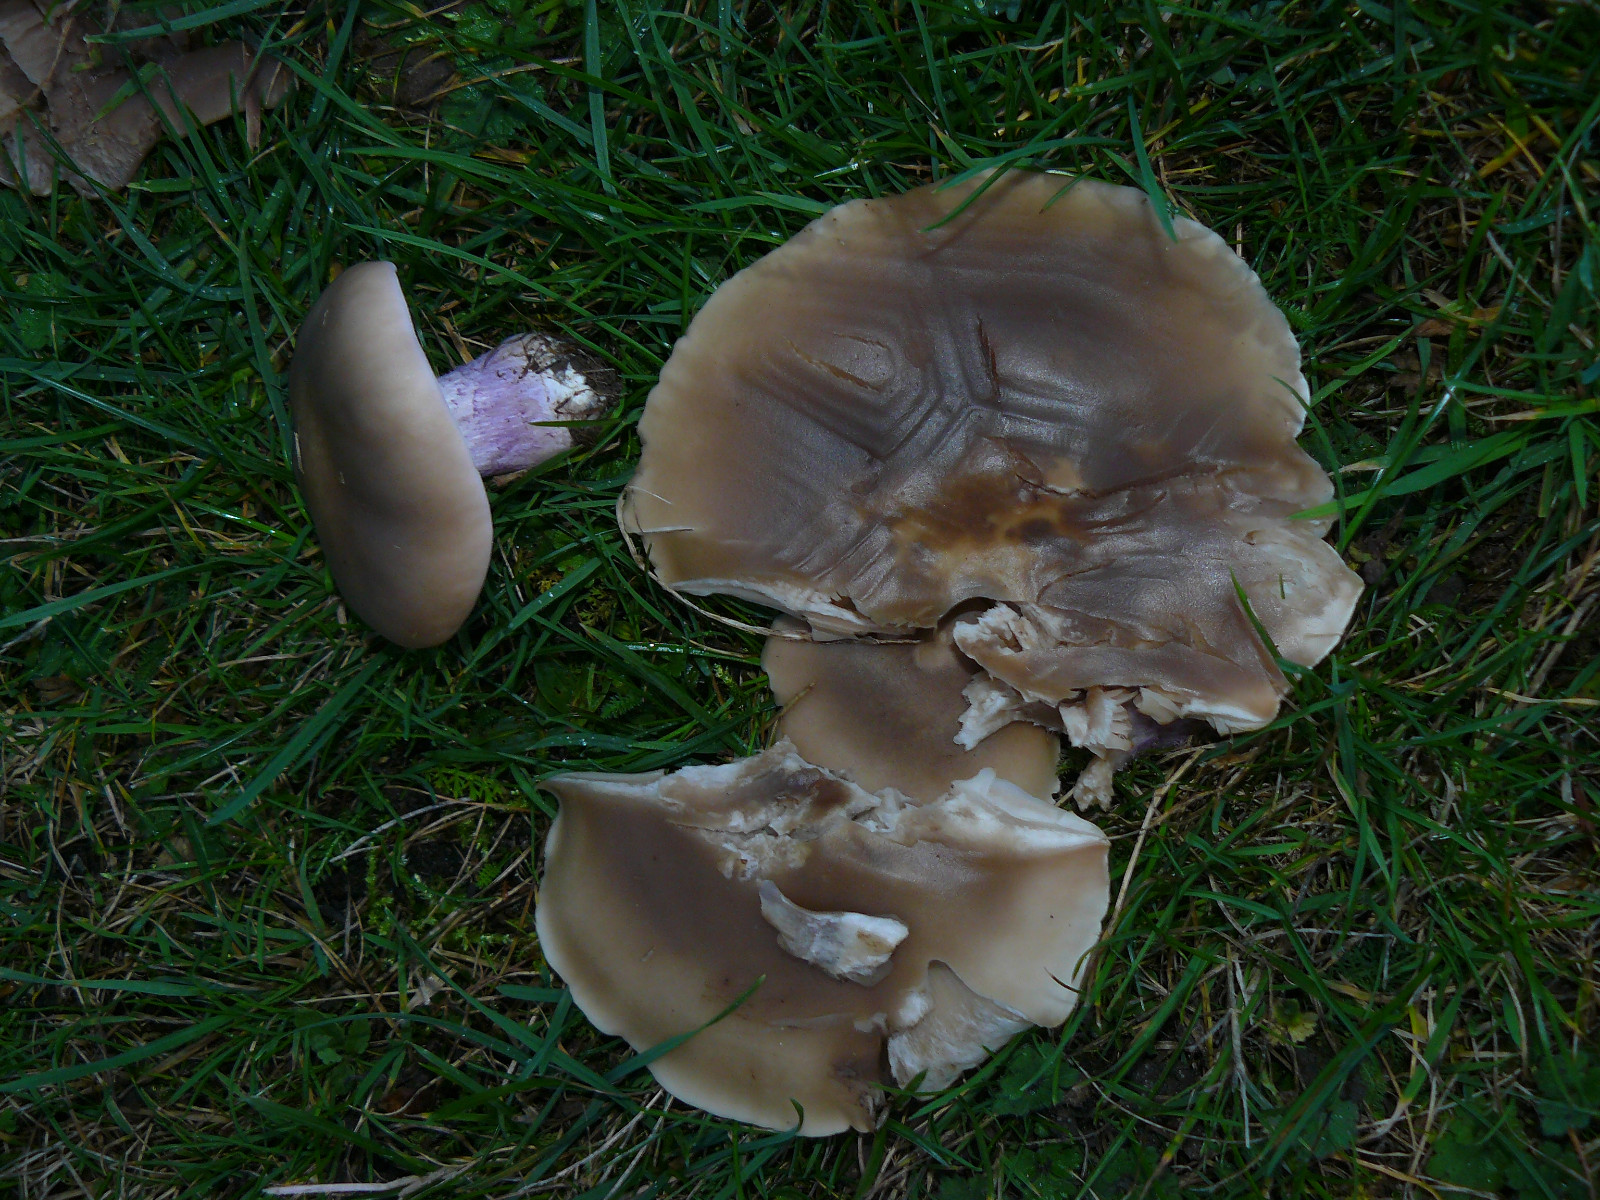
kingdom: Fungi
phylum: Basidiomycota
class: Agaricomycetes
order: Agaricales
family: Tricholomataceae
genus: Lepista
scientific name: Lepista personata
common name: bleg hekseringshat
